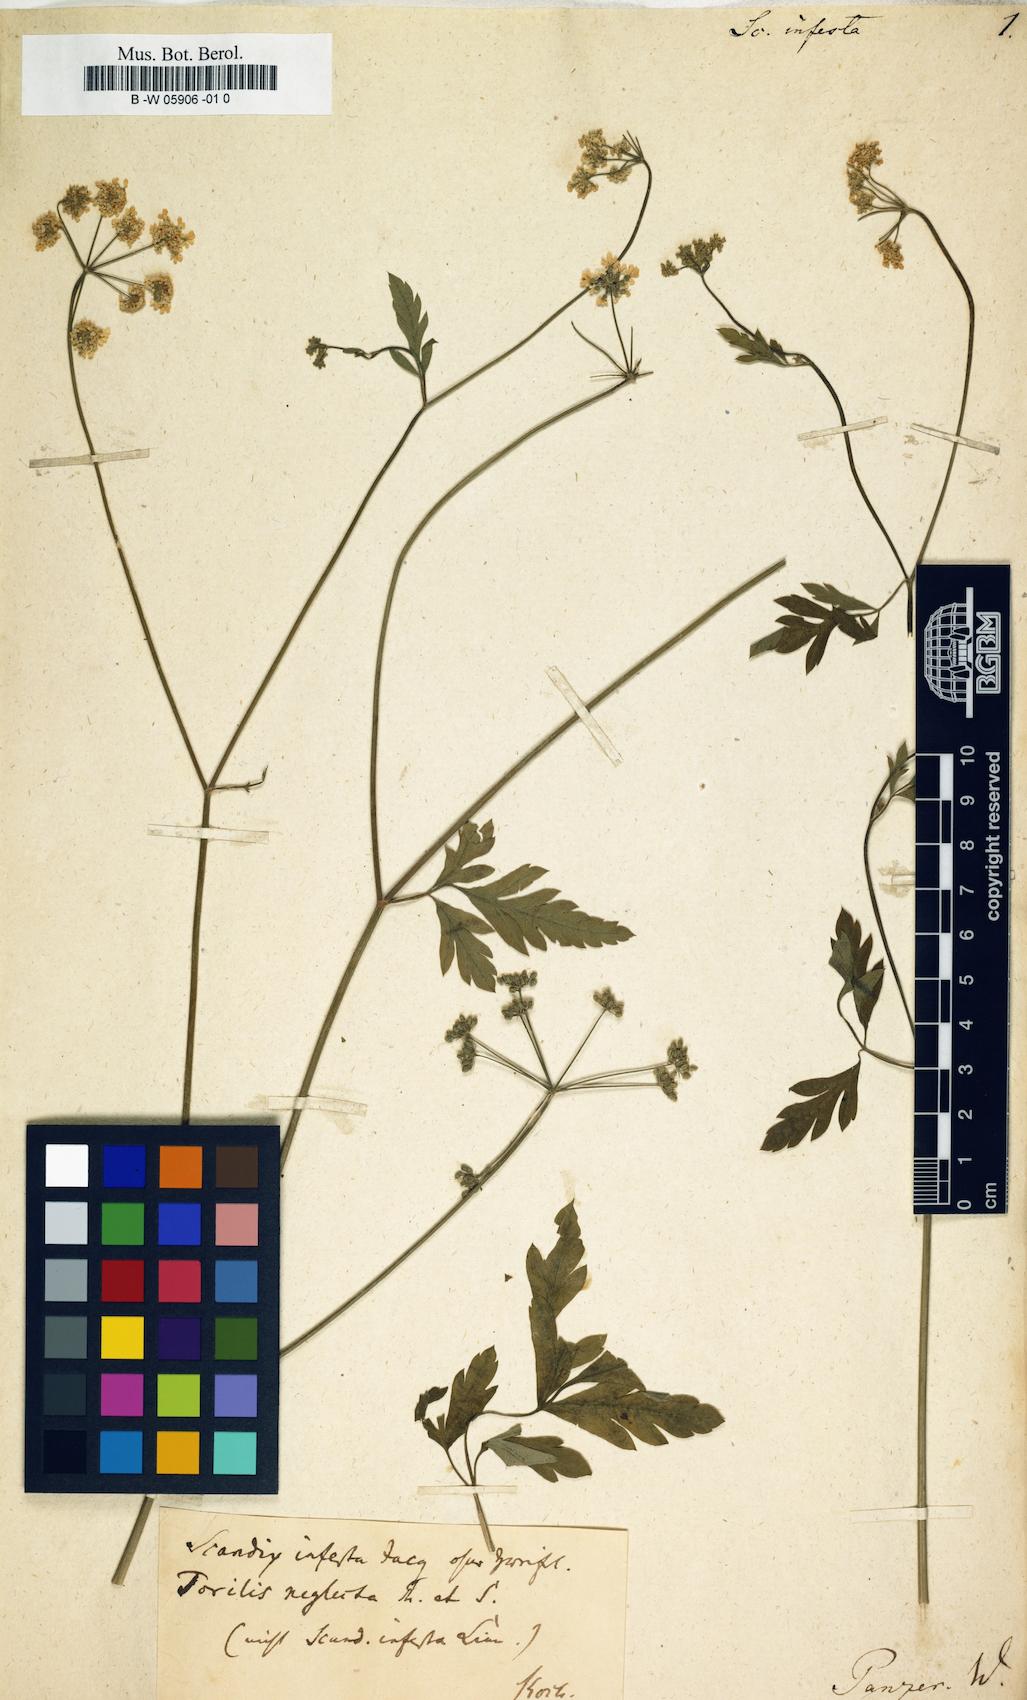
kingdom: Plantae
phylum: Tracheophyta
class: Magnoliopsida
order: Apiales
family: Apiaceae
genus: Torilis
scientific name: Torilis arvensis
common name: Spreading hedge-parsley
